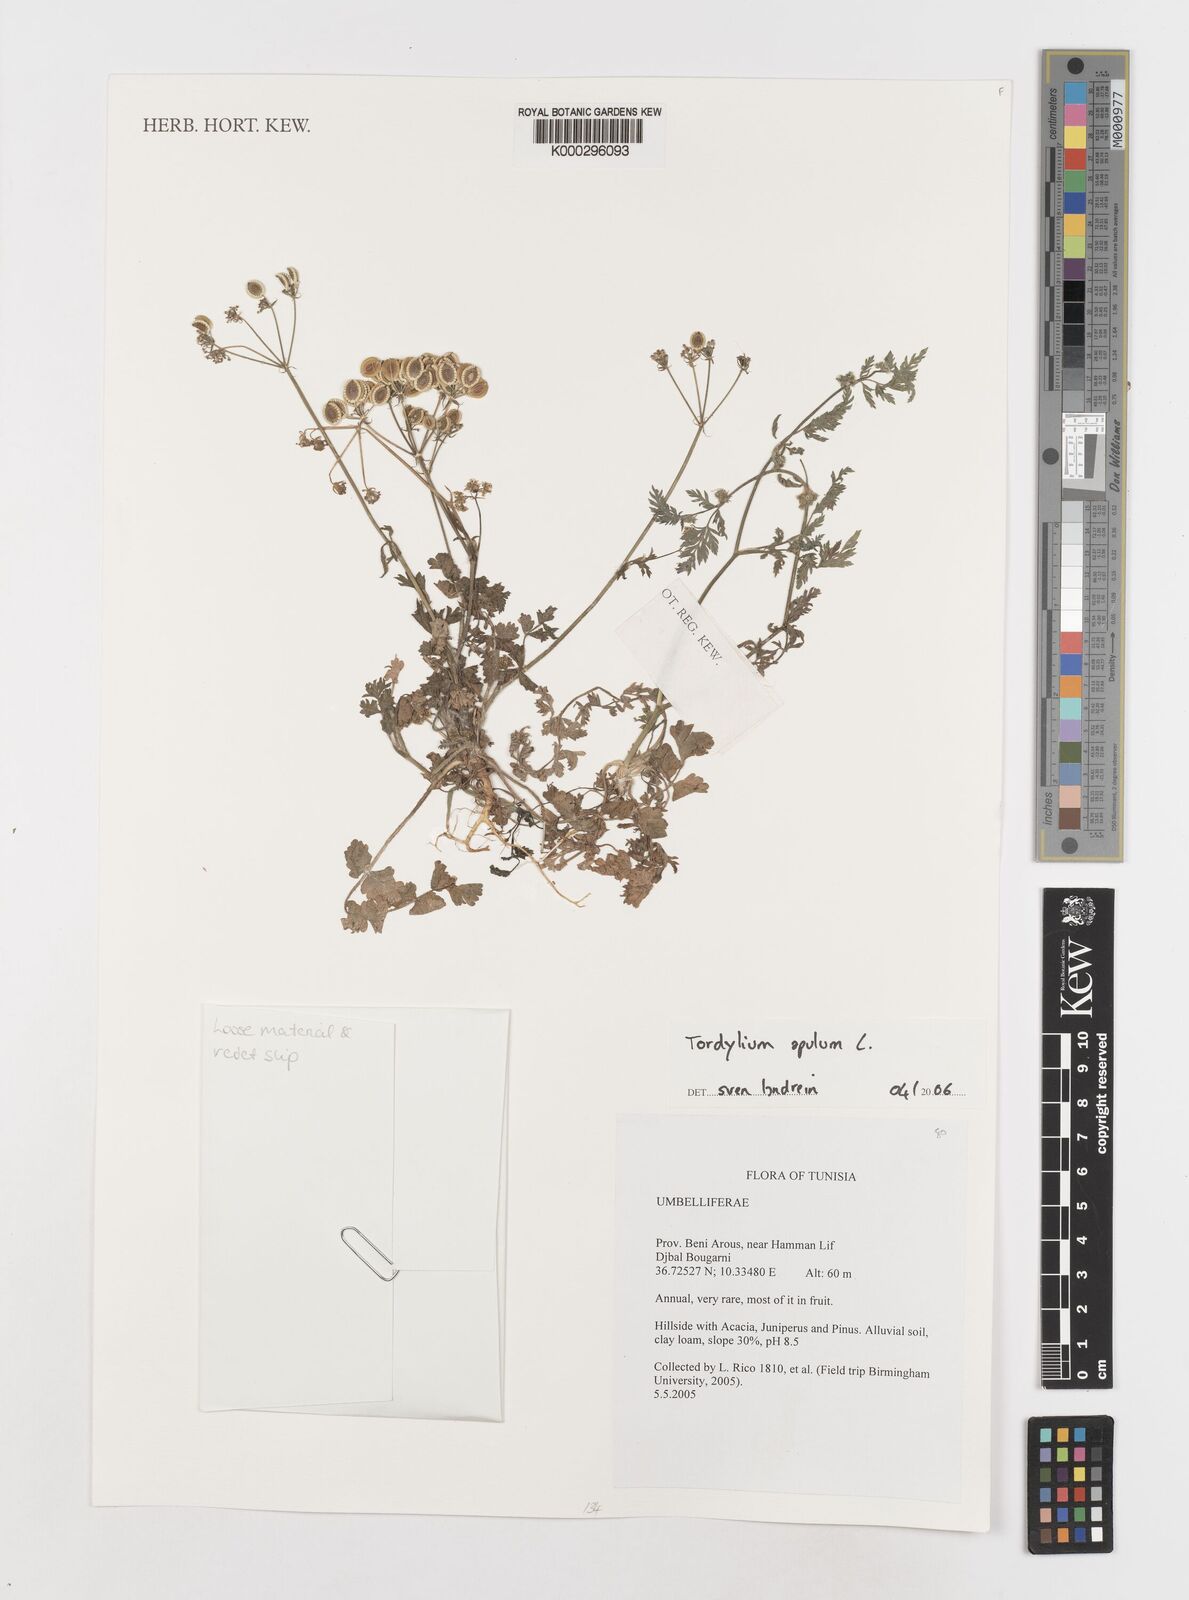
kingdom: Plantae
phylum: Tracheophyta
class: Magnoliopsida
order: Apiales
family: Apiaceae
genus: Tordylium
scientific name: Tordylium apulum
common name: Mediterranean hartwort
